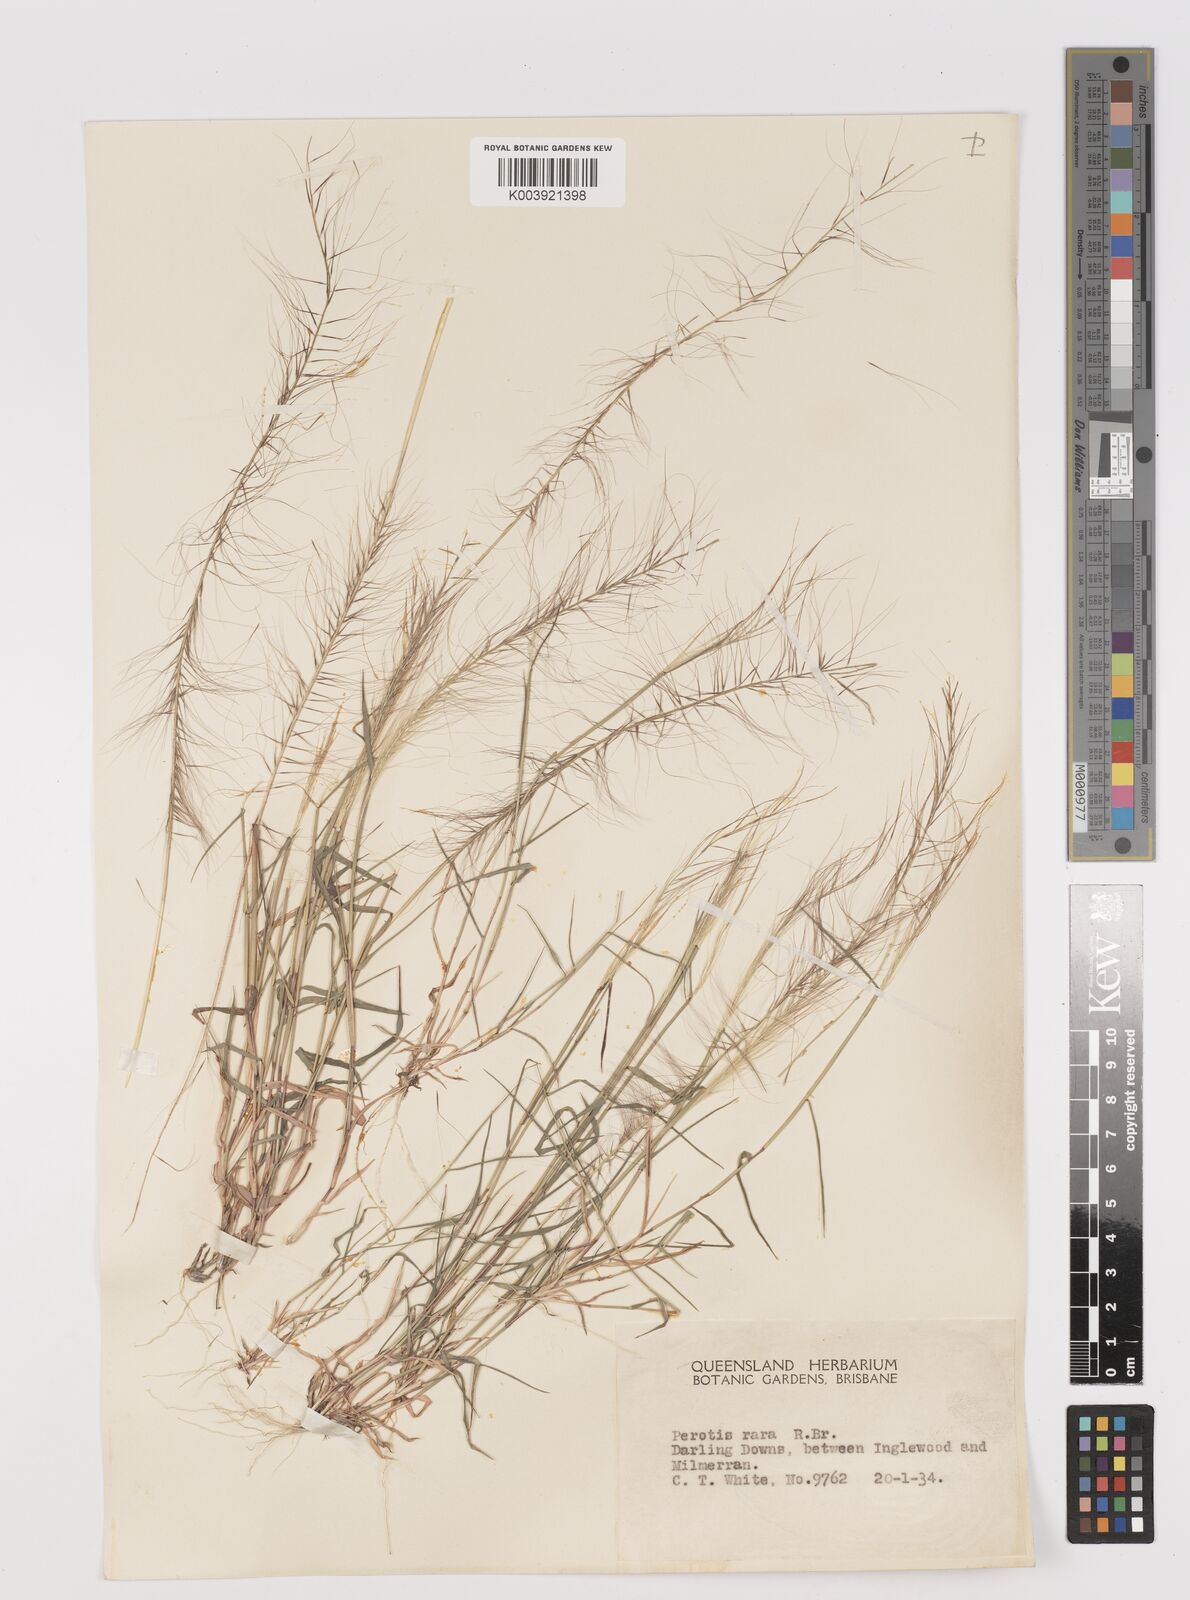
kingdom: Plantae
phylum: Tracheophyta
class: Liliopsida
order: Poales
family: Poaceae
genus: Perotis
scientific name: Perotis rara
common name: Comet grass
